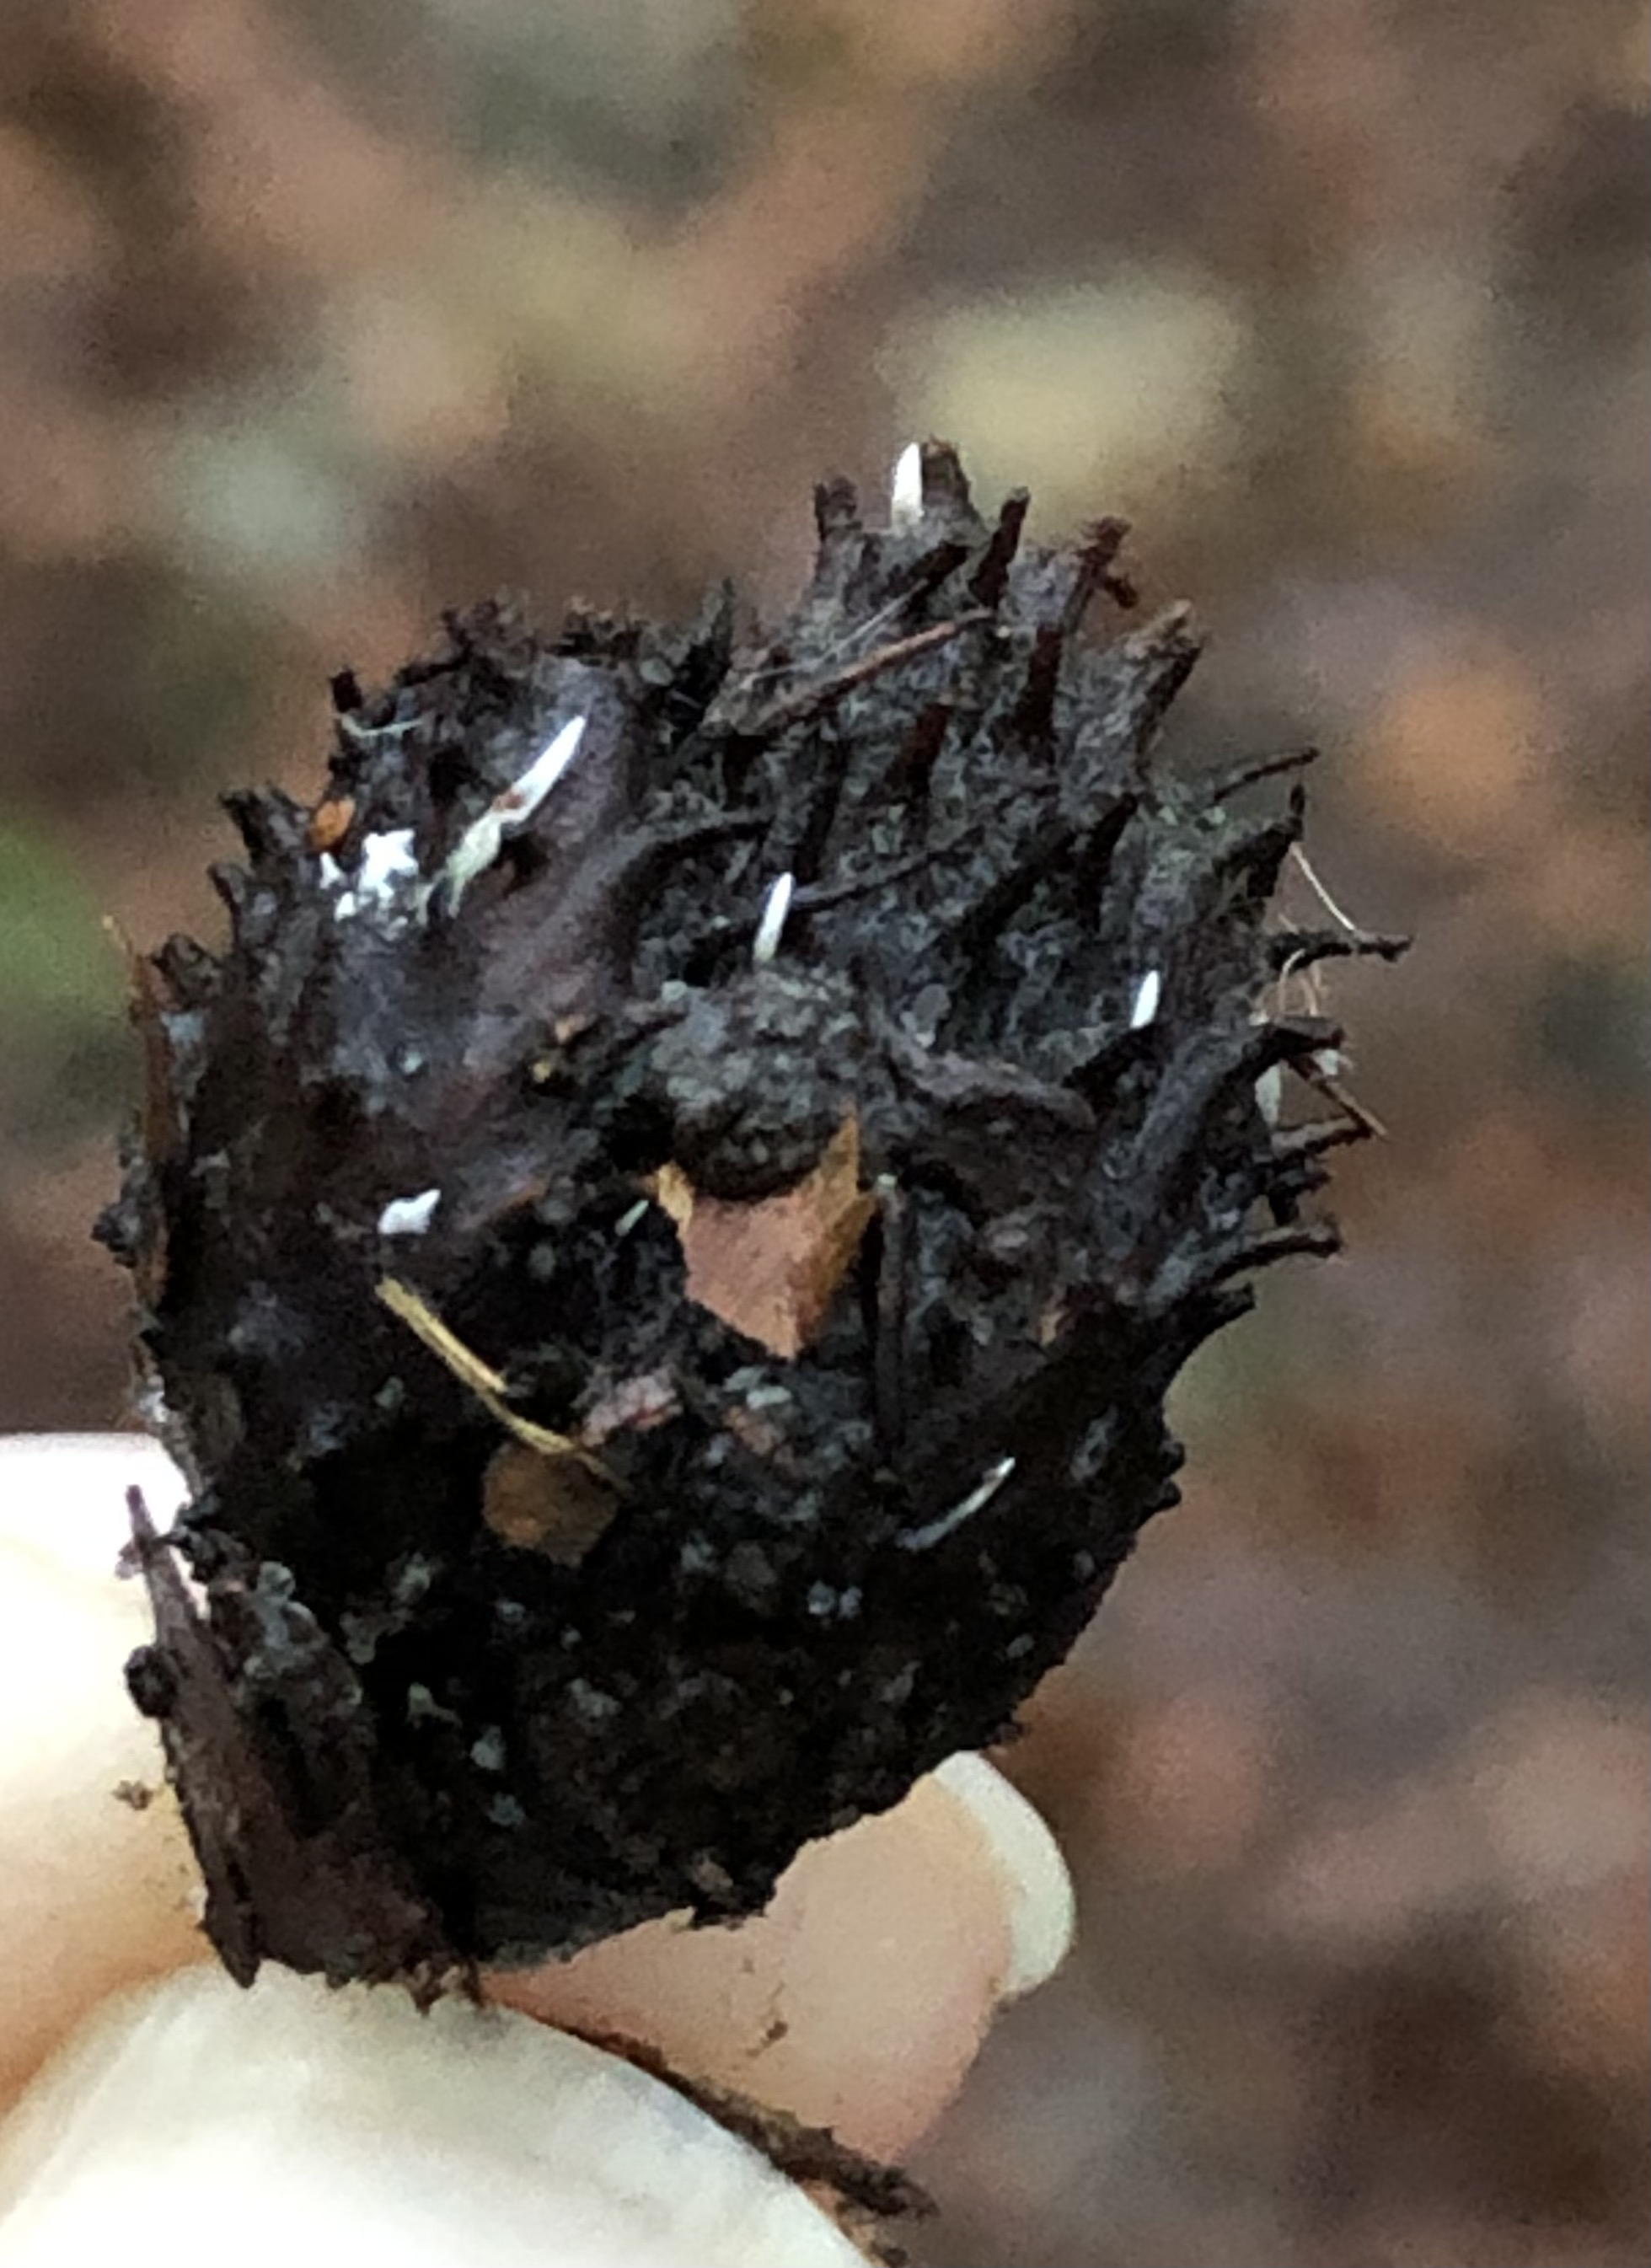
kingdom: Fungi
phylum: Ascomycota
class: Sordariomycetes
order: Xylariales
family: Xylariaceae
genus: Xylaria
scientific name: Xylaria carpophila
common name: bogskål-stødsvamp
